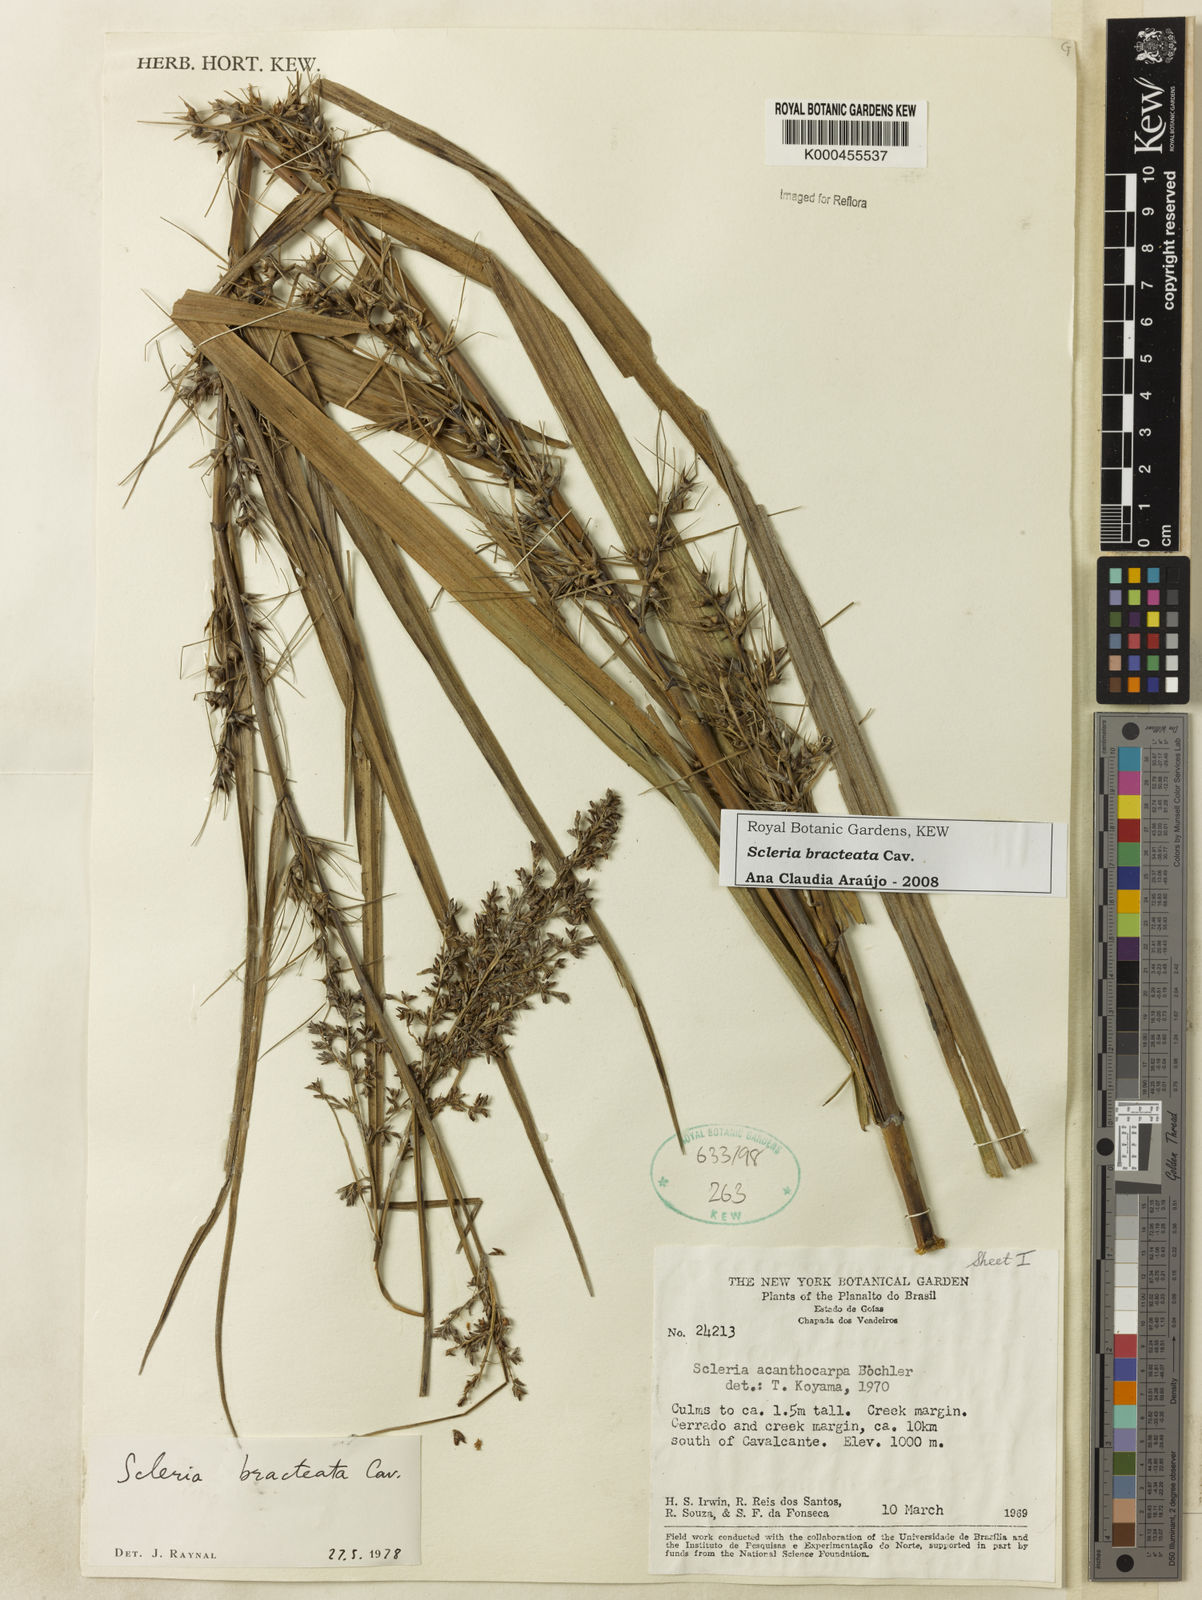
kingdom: Plantae
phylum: Tracheophyta
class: Liliopsida
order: Poales
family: Cyperaceae
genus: Scleria
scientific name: Scleria bracteata
